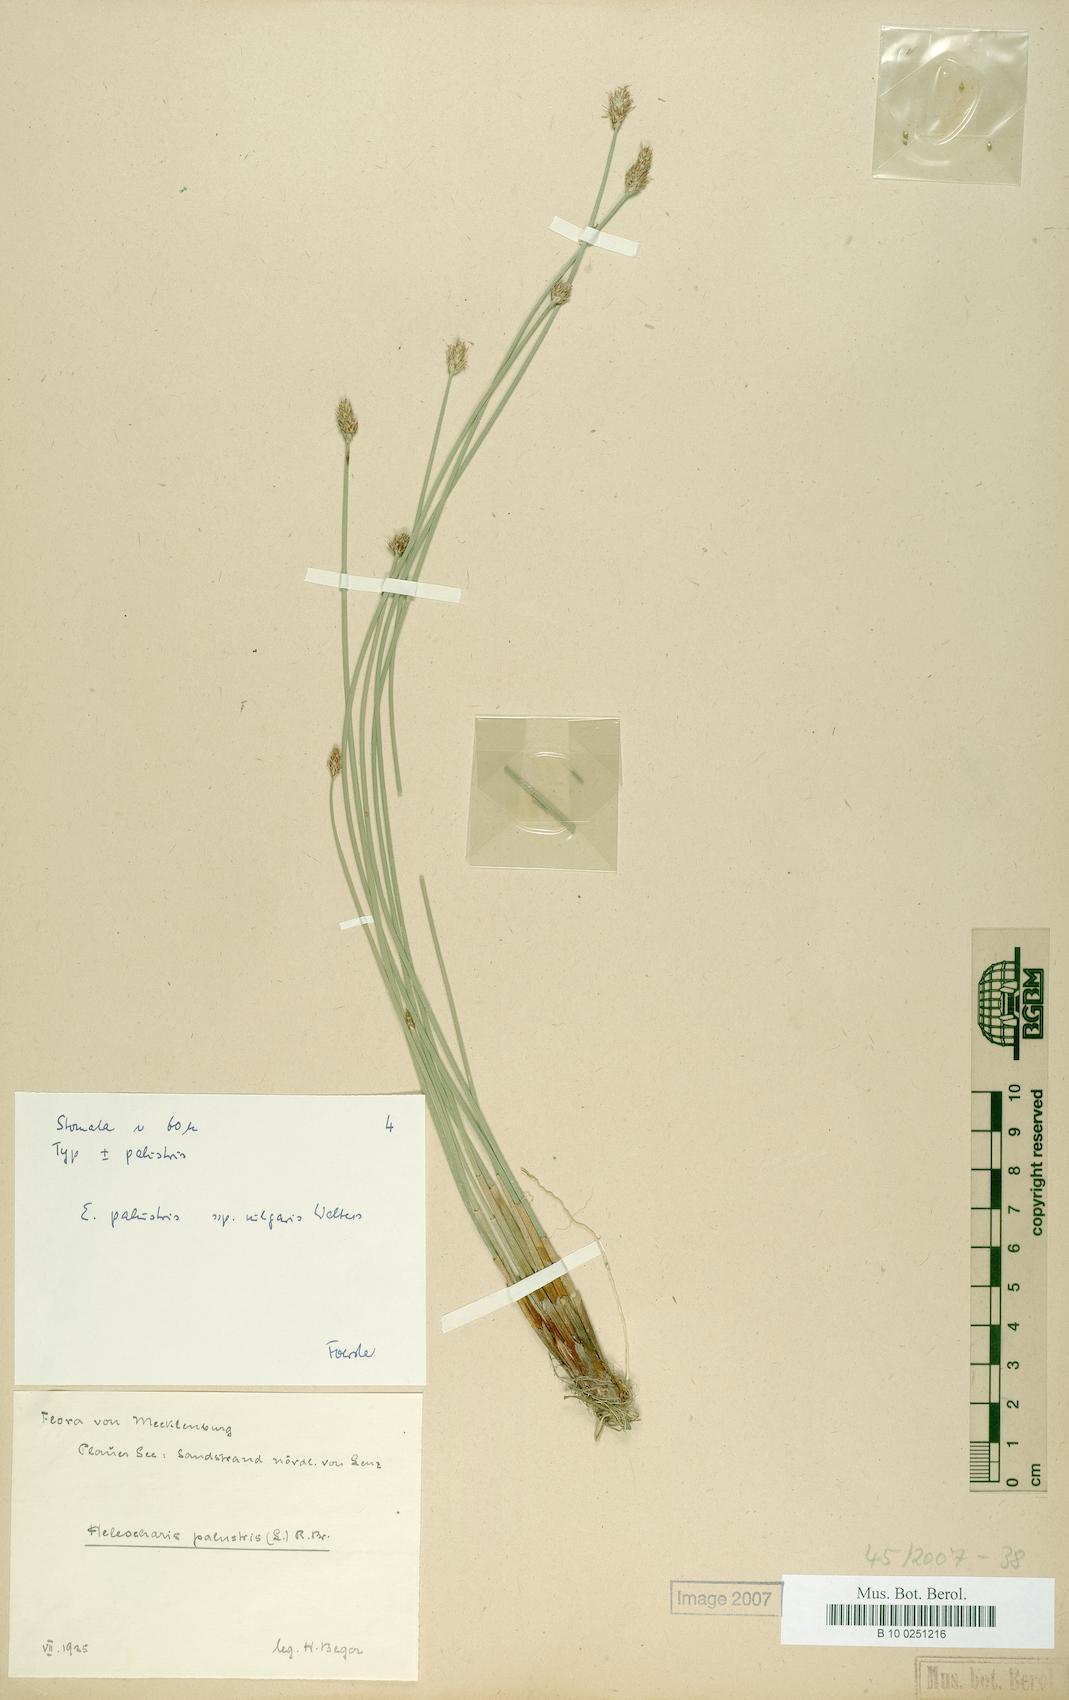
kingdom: Plantae
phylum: Tracheophyta
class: Liliopsida
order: Poales
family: Cyperaceae
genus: Eleocharis
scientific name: Eleocharis palustris
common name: Common spike-rush
